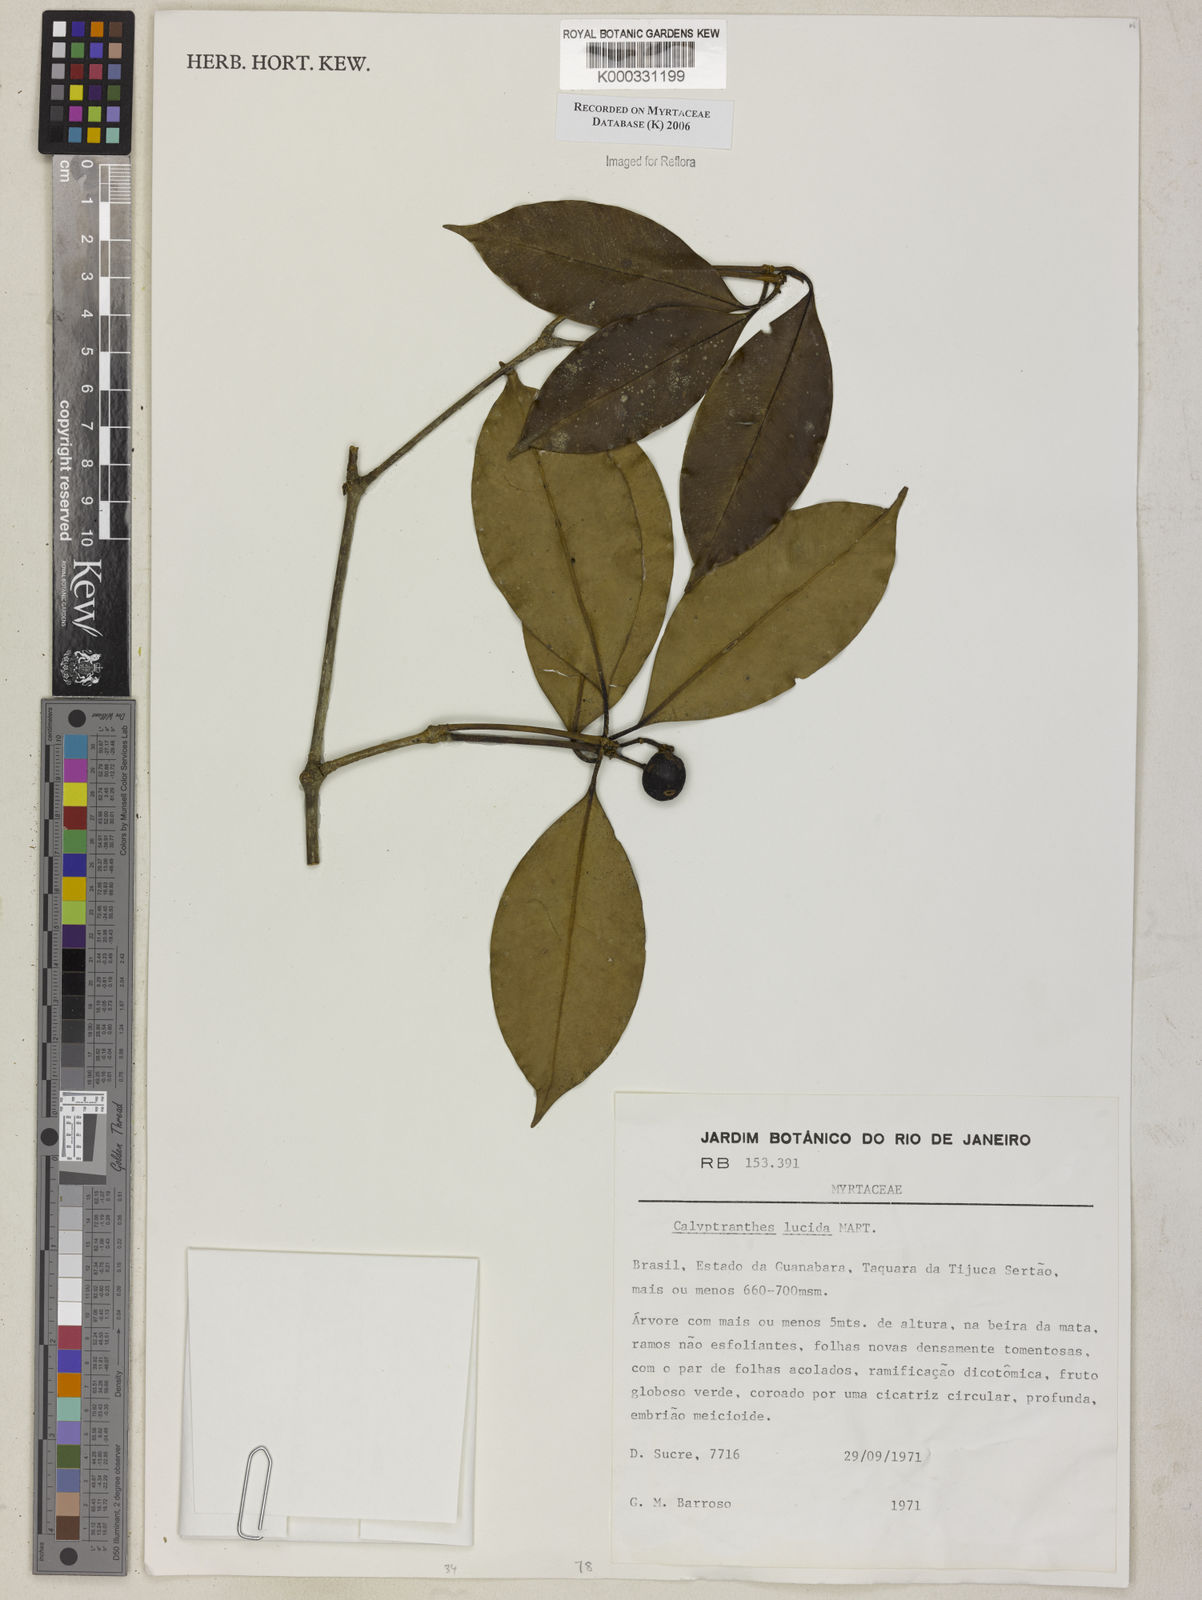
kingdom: Plantae
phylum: Tracheophyta
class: Magnoliopsida
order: Myrtales
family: Myrtaceae
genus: Myrcia
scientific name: Myrcia neolucida
